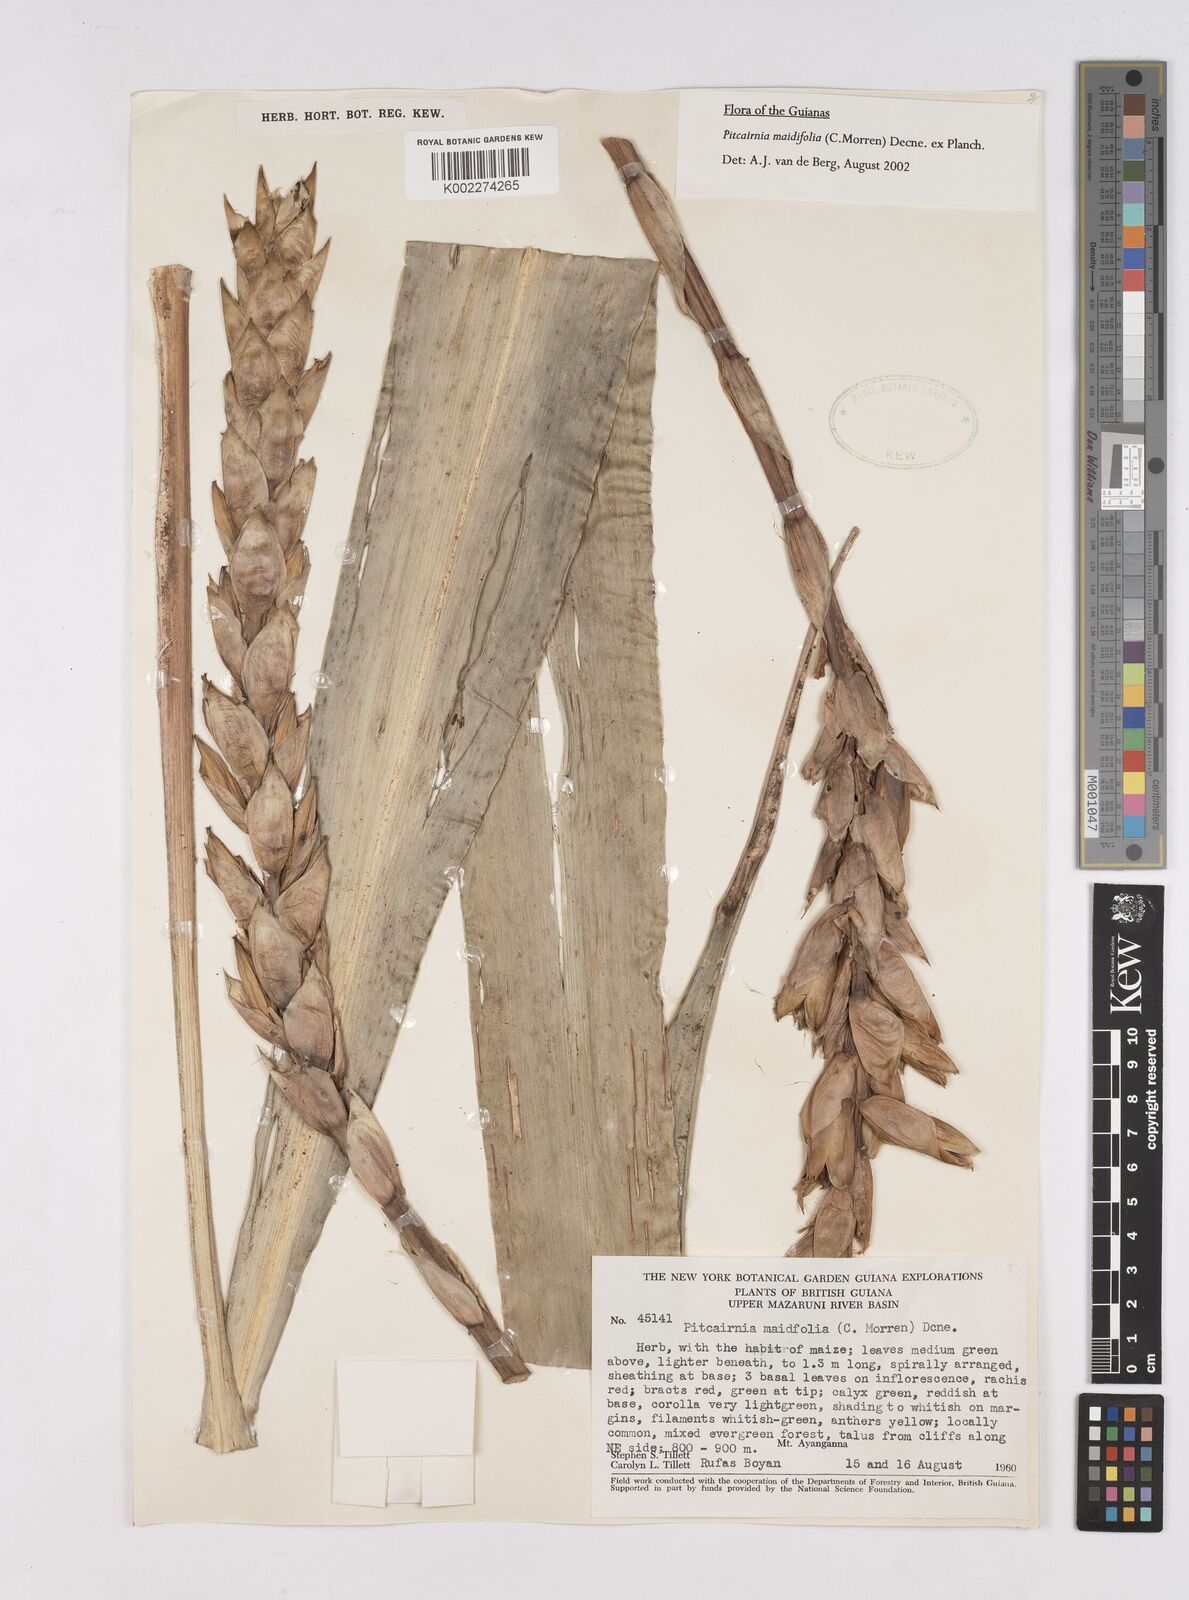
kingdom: Plantae
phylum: Tracheophyta
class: Liliopsida
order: Poales
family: Bromeliaceae
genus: Pitcairnia
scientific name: Pitcairnia maidifolia
